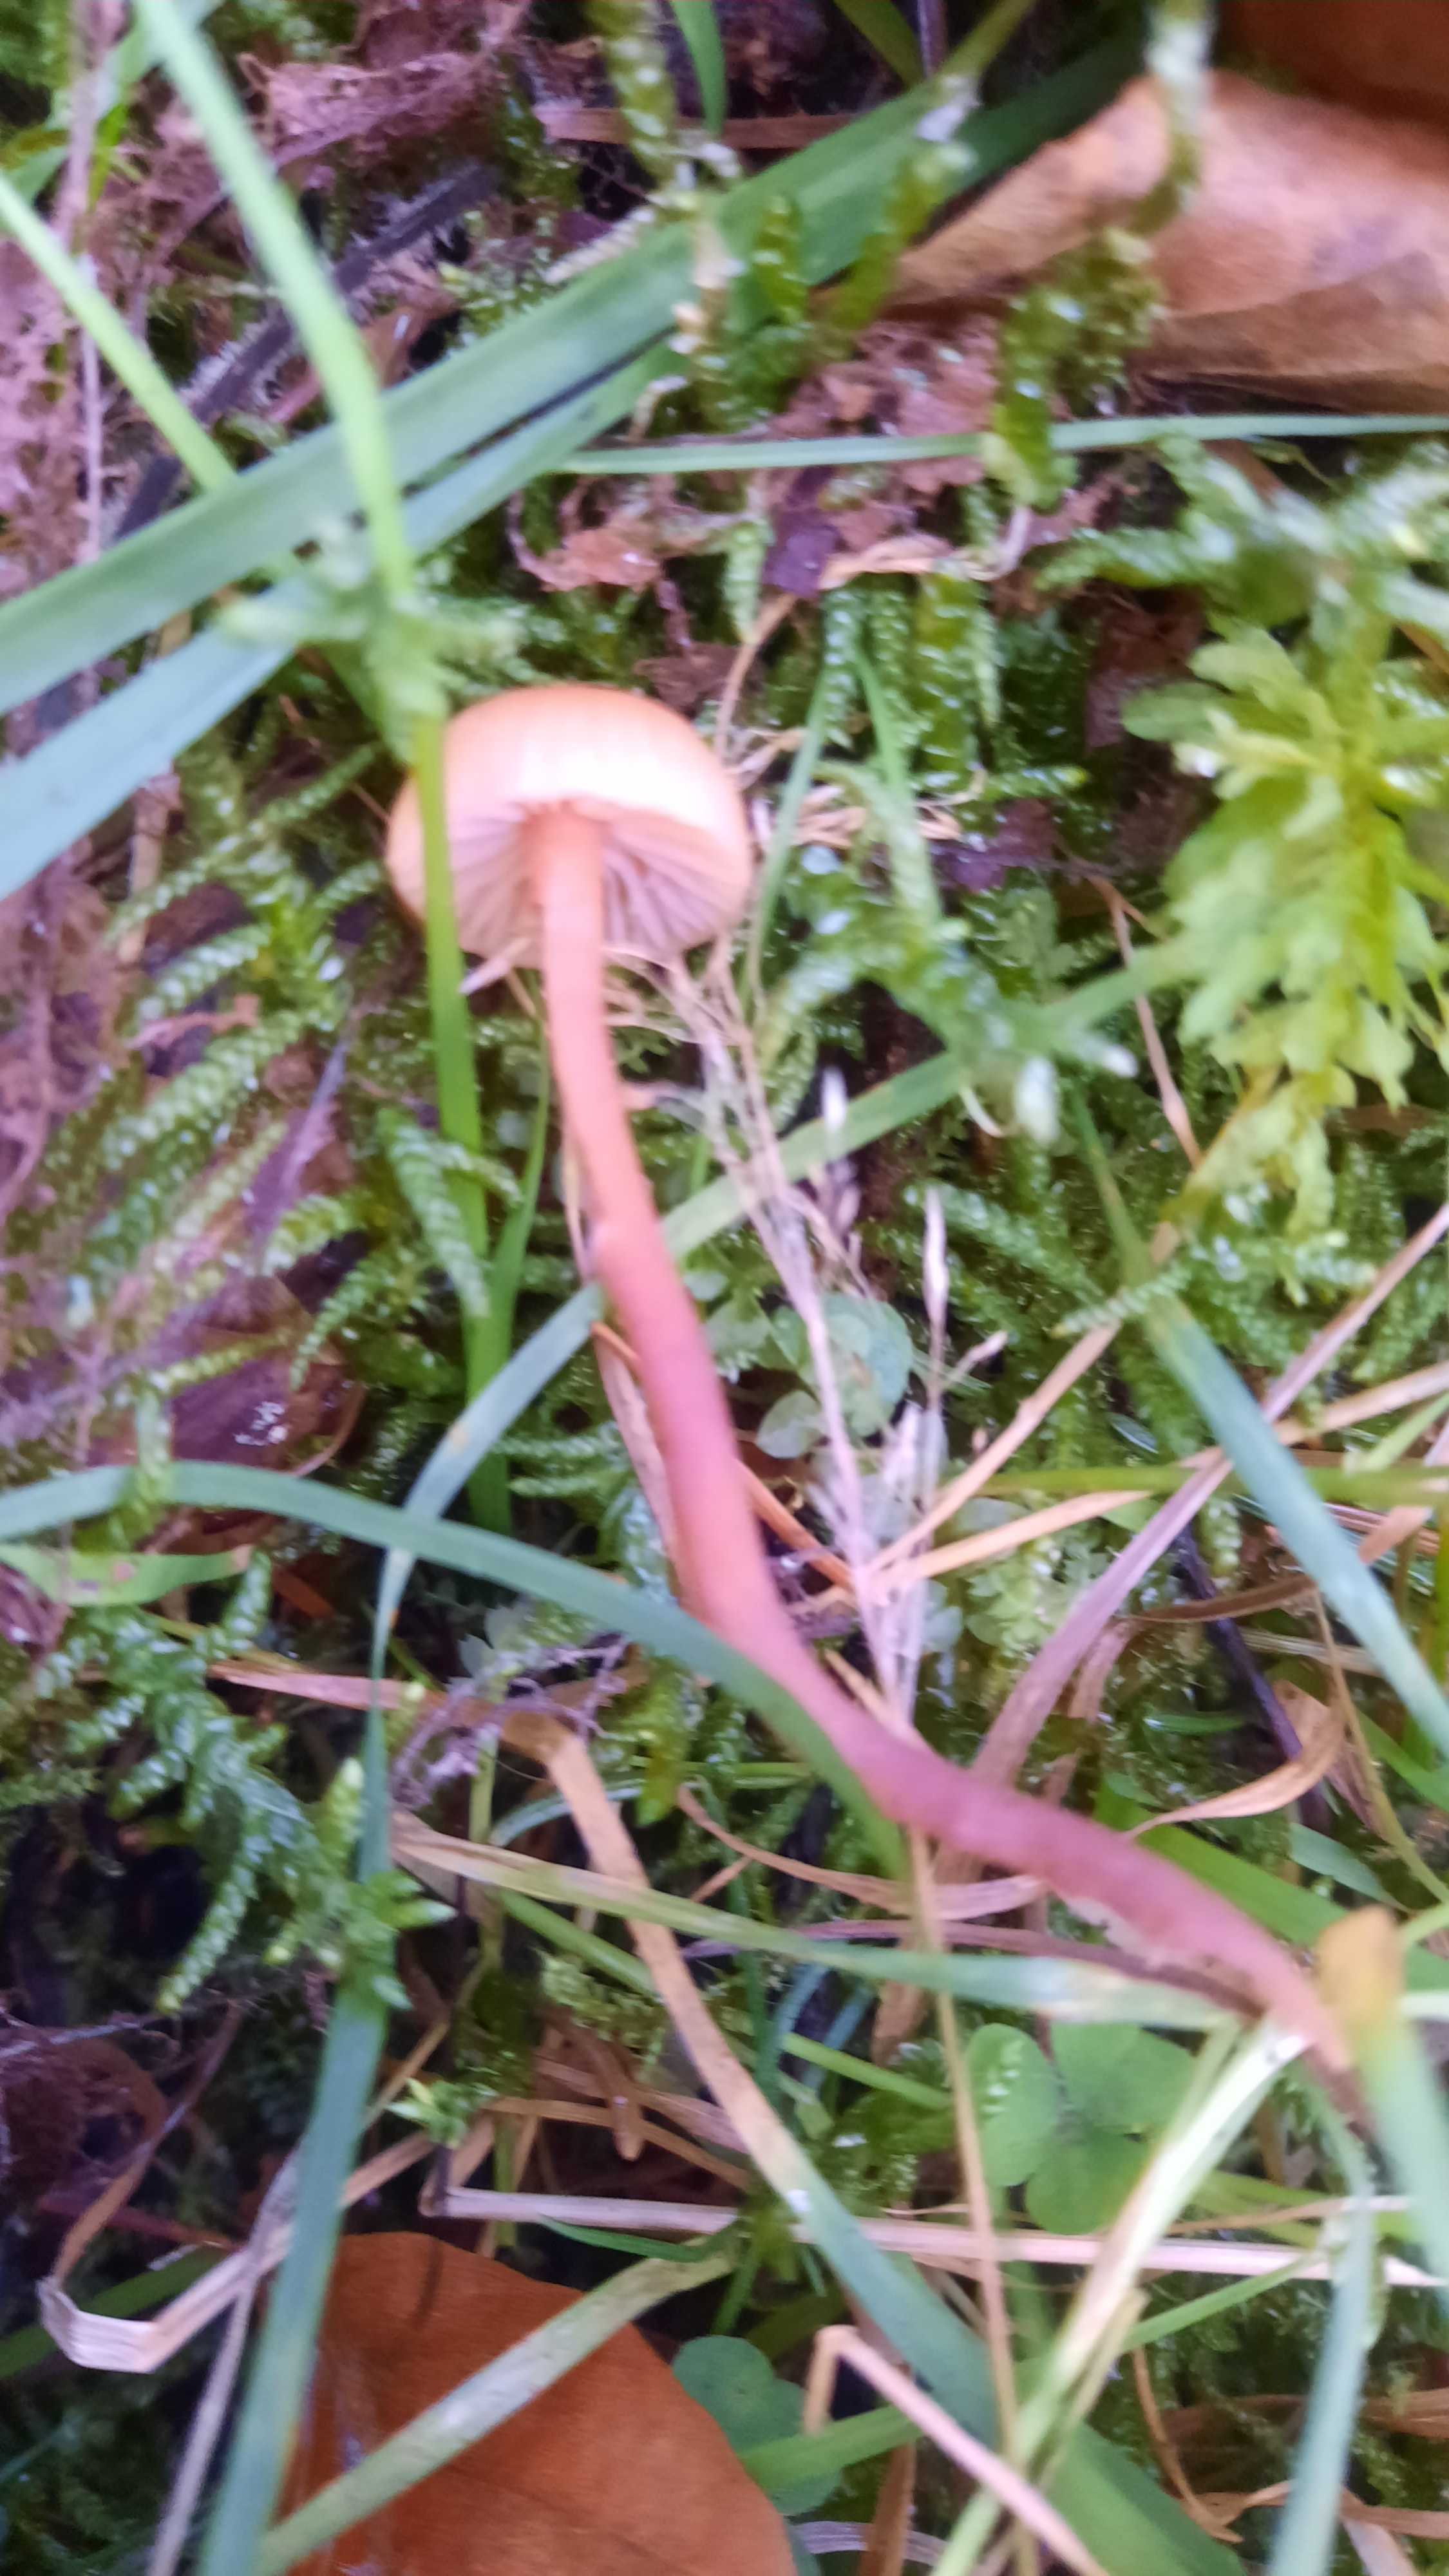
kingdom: Fungi
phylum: Basidiomycota
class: Agaricomycetes
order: Agaricales
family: Hydnangiaceae
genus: Laccaria
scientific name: Laccaria laccata
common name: rød ametysthat
